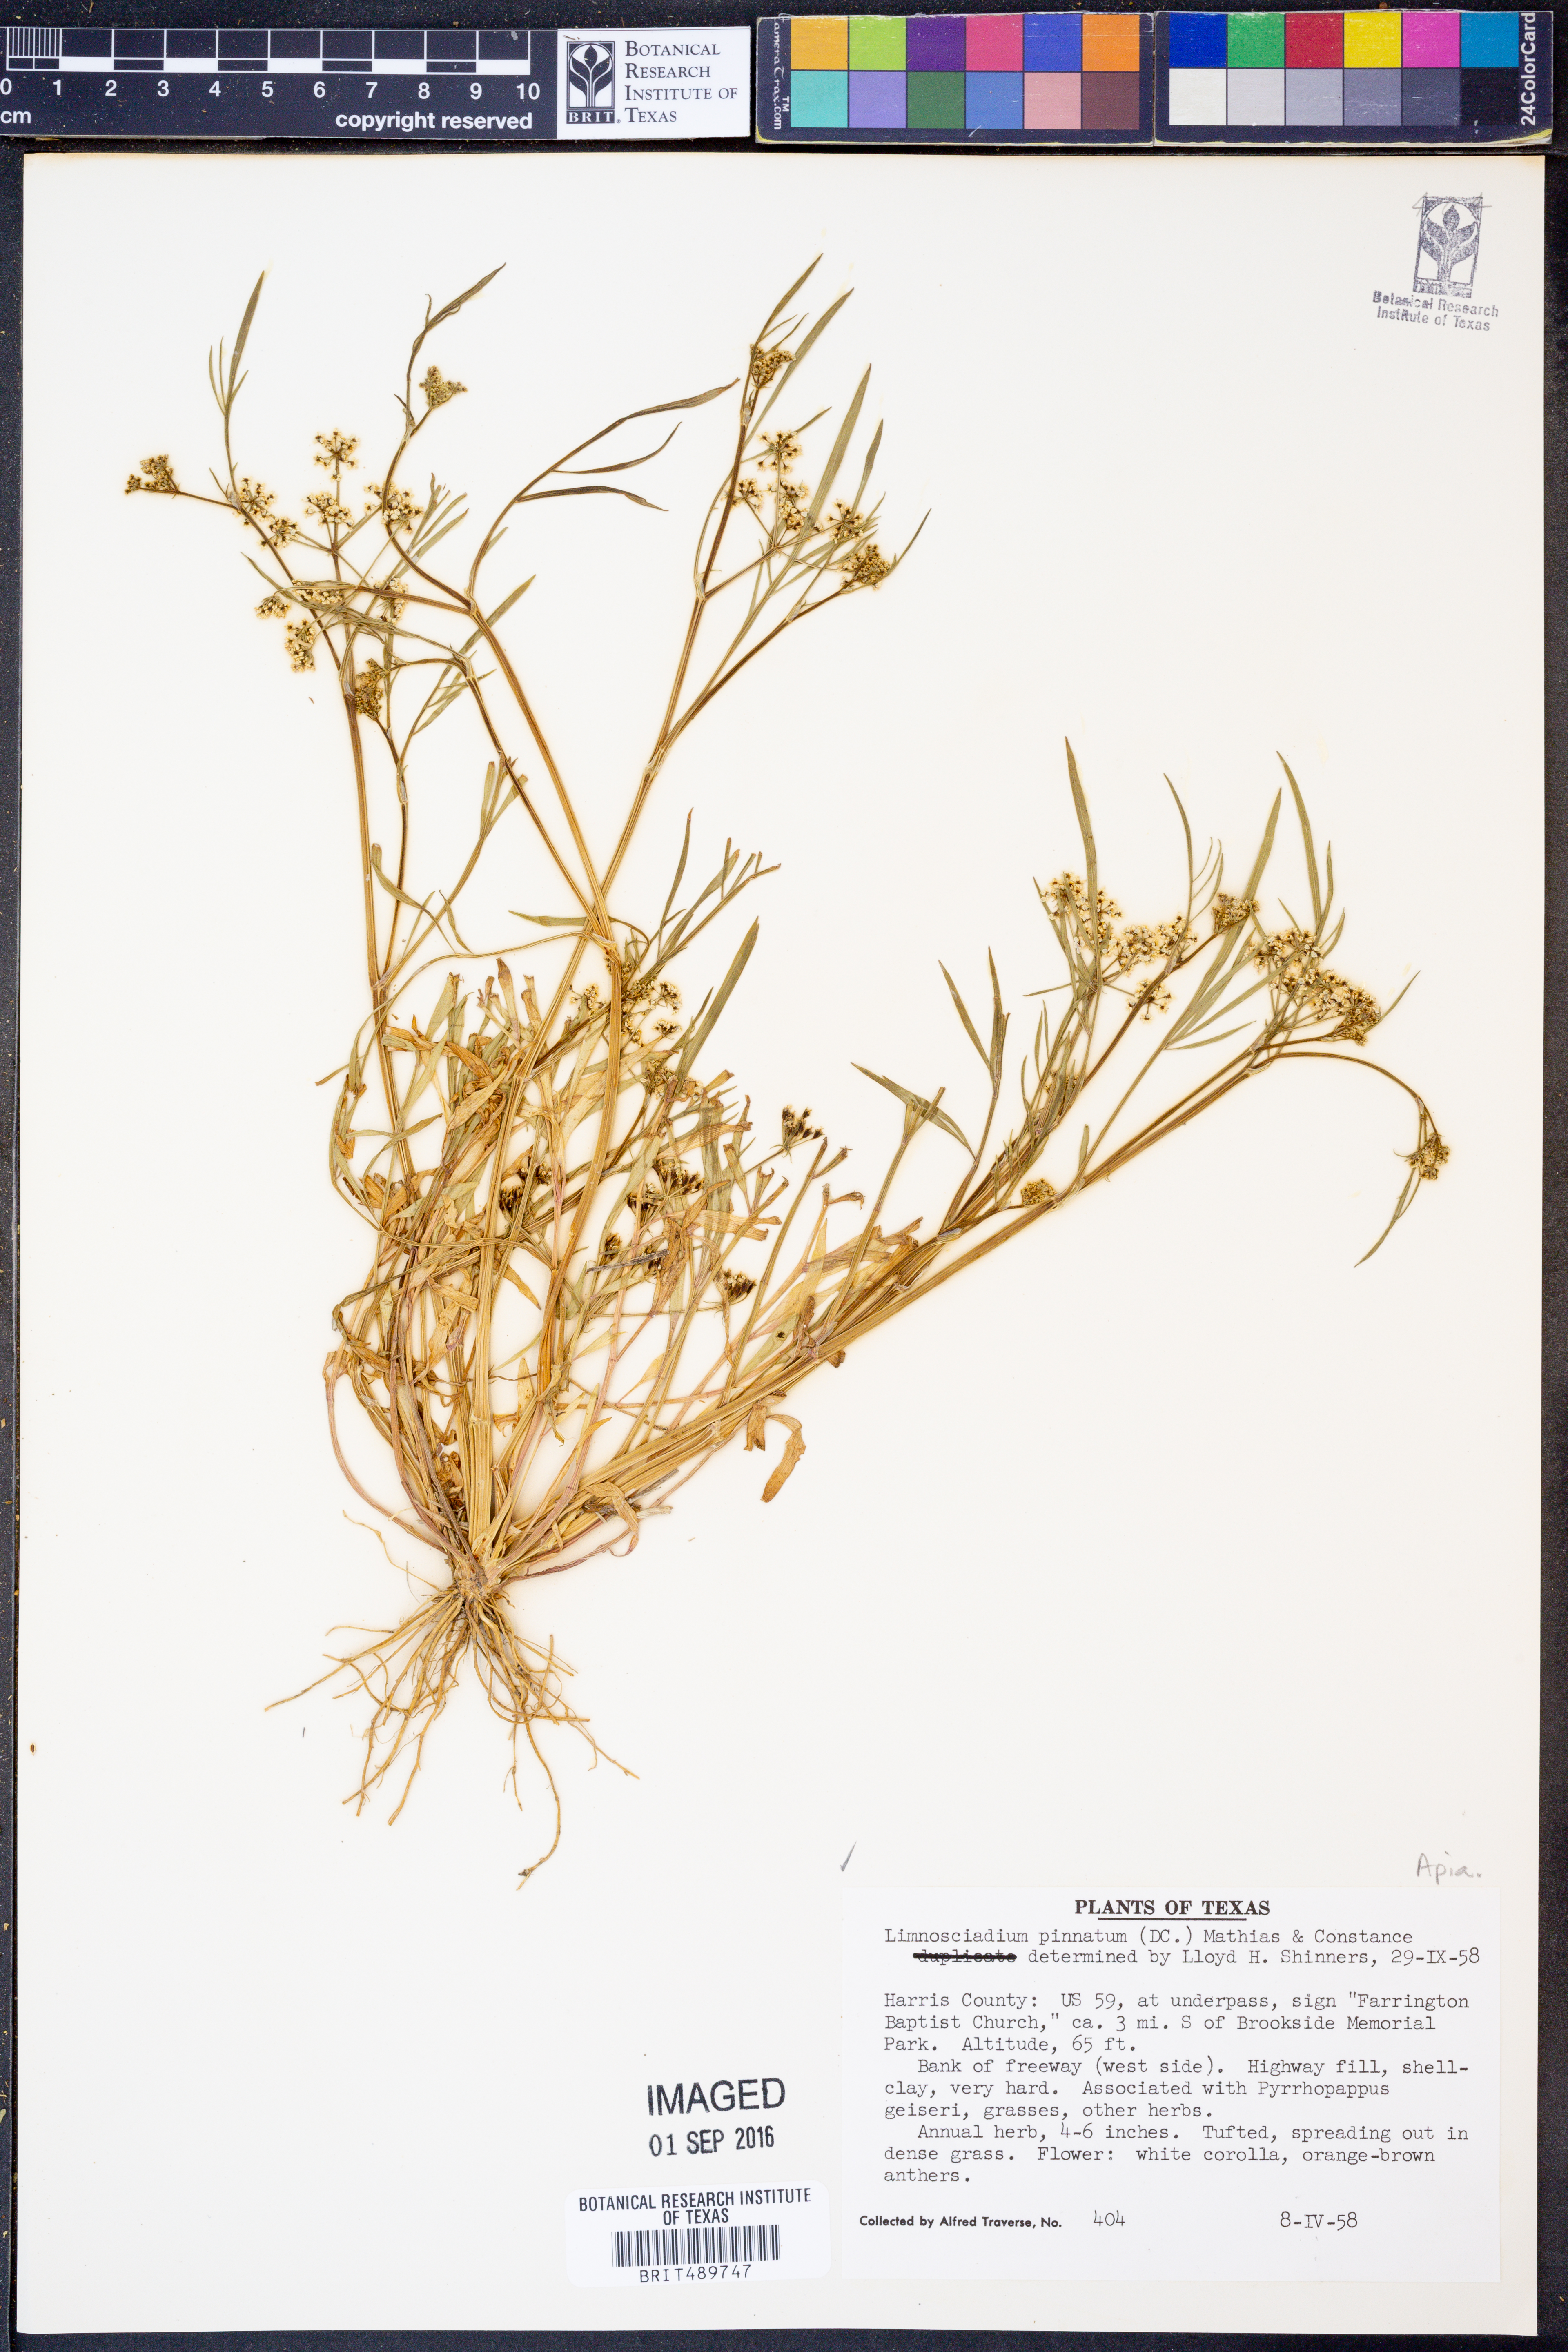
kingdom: Plantae
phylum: Tracheophyta
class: Magnoliopsida
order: Apiales
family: Apiaceae
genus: Limnosciadium
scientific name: Limnosciadium pinnatum
